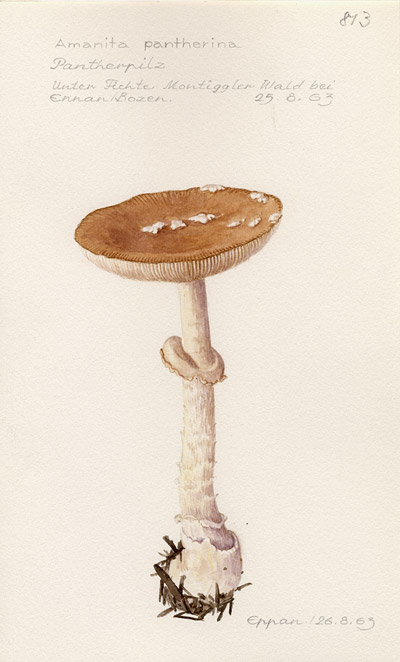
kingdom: Fungi
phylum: Basidiomycota
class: Agaricomycetes
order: Agaricales
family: Amanitaceae
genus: Amanita
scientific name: Amanita pantherina
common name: Panthercap
